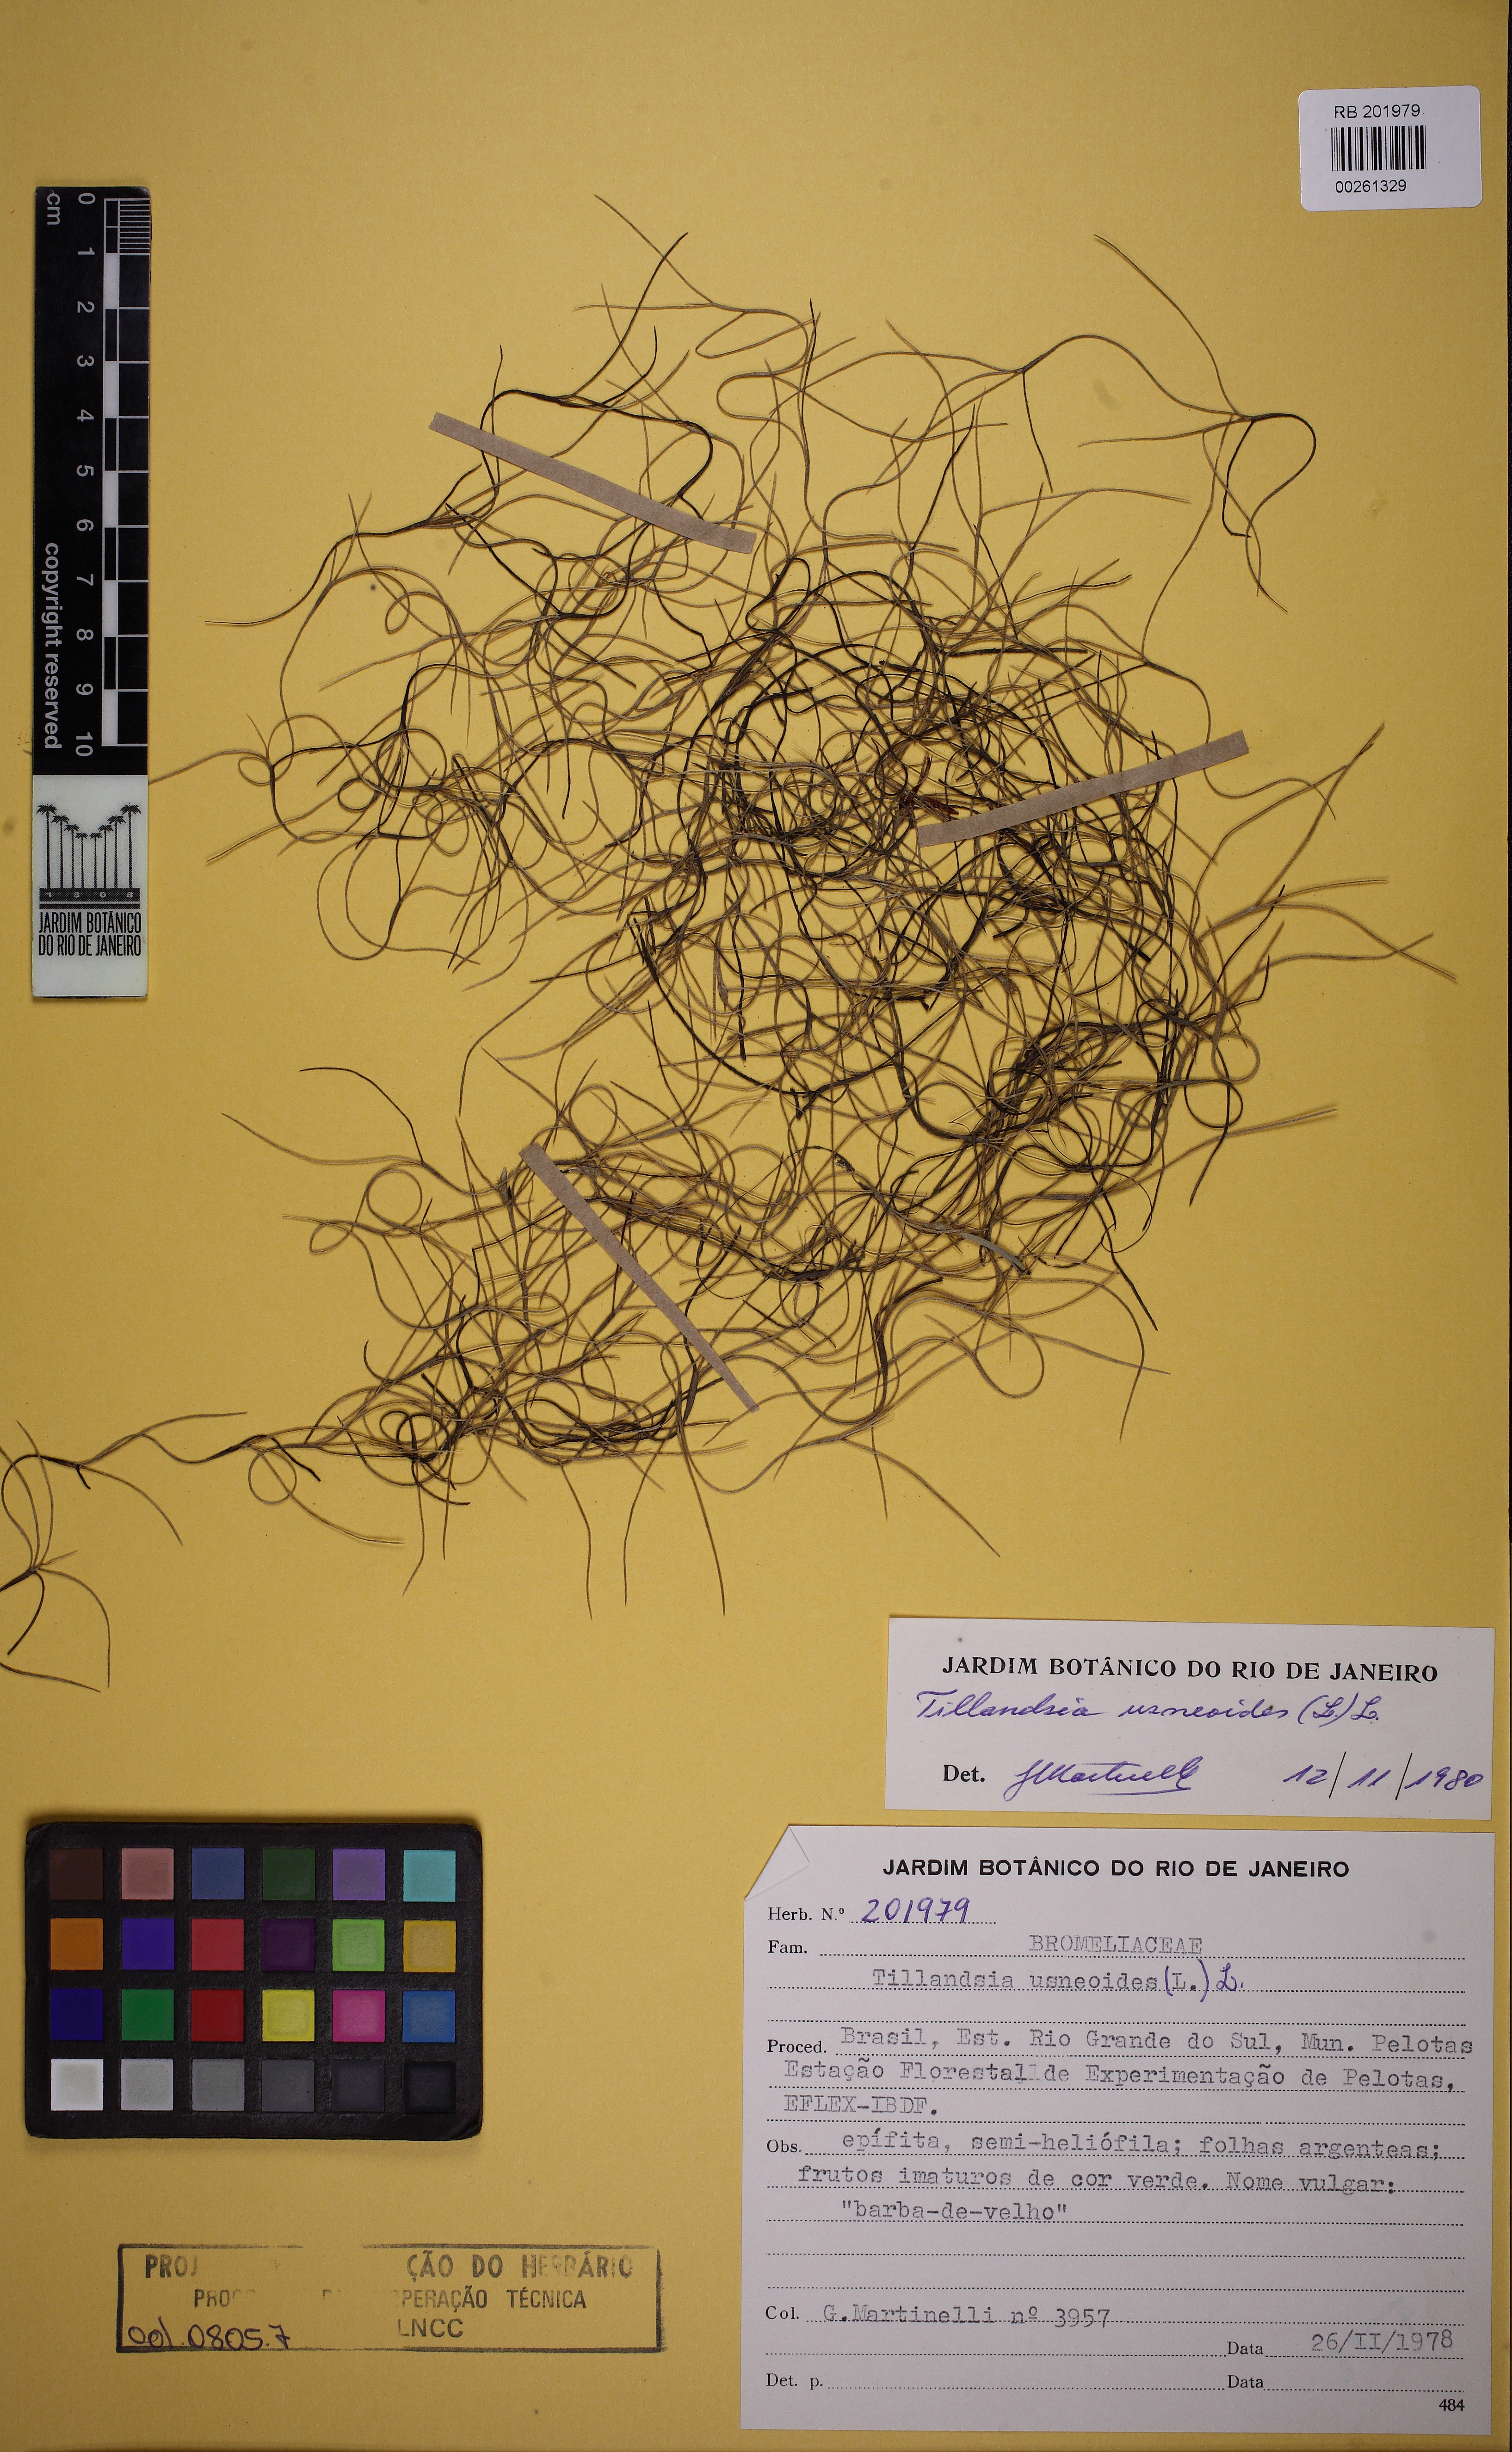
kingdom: Plantae
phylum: Tracheophyta
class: Liliopsida
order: Poales
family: Bromeliaceae
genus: Tillandsia
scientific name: Tillandsia usneoides
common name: Spanish moss
